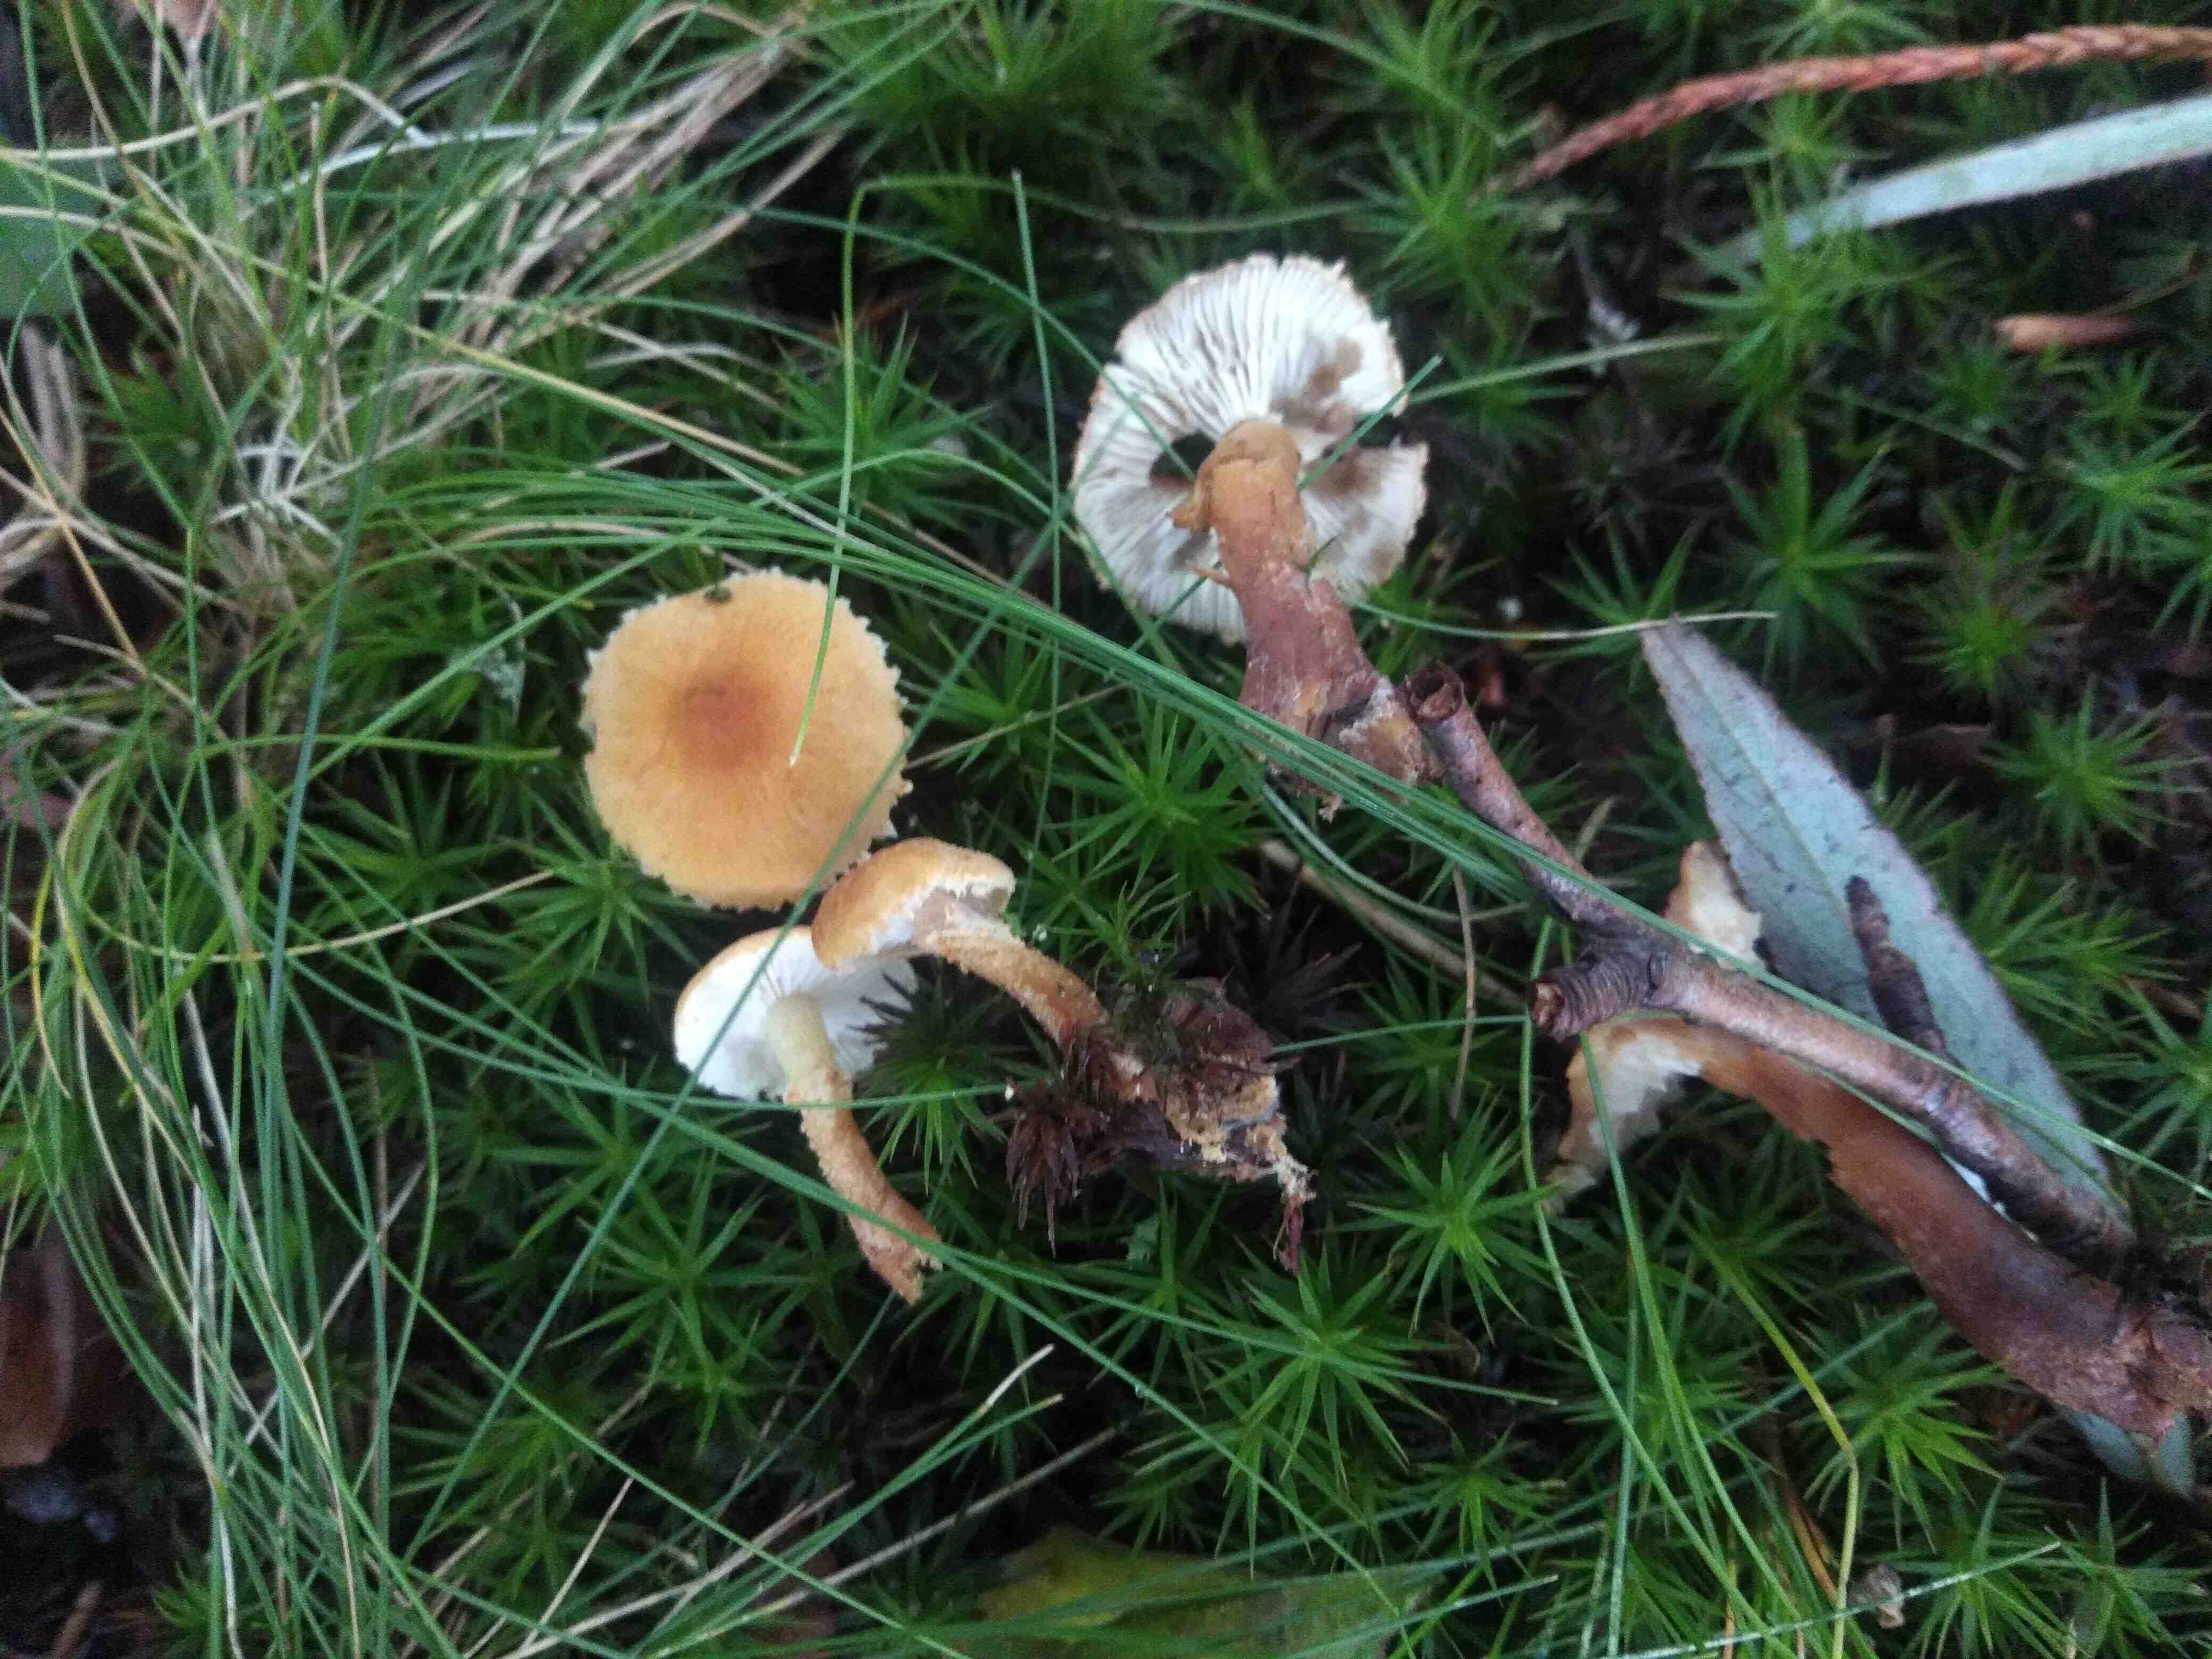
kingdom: Fungi
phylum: Basidiomycota
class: Agaricomycetes
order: Agaricales
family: Tricholomataceae
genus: Cystoderma
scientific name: Cystoderma amianthinum
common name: okkergul grynhat
